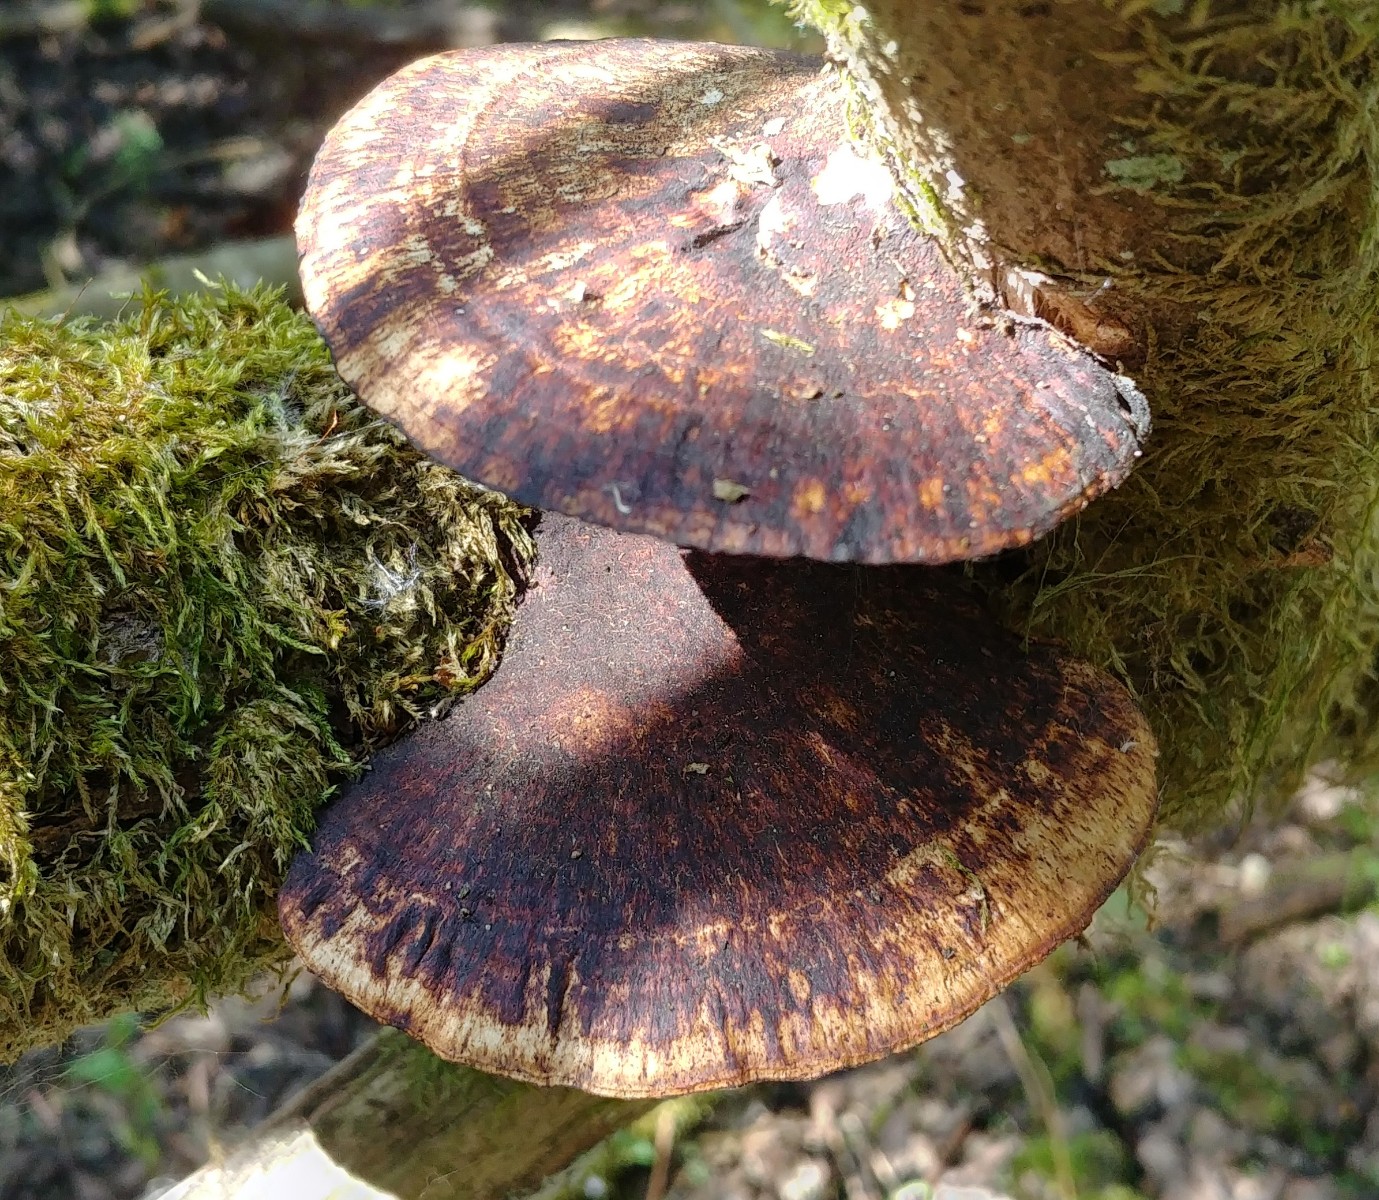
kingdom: Fungi
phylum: Basidiomycota
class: Agaricomycetes
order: Polyporales
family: Polyporaceae
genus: Daedaleopsis
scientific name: Daedaleopsis confragosa
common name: rødmende læderporesvamp
